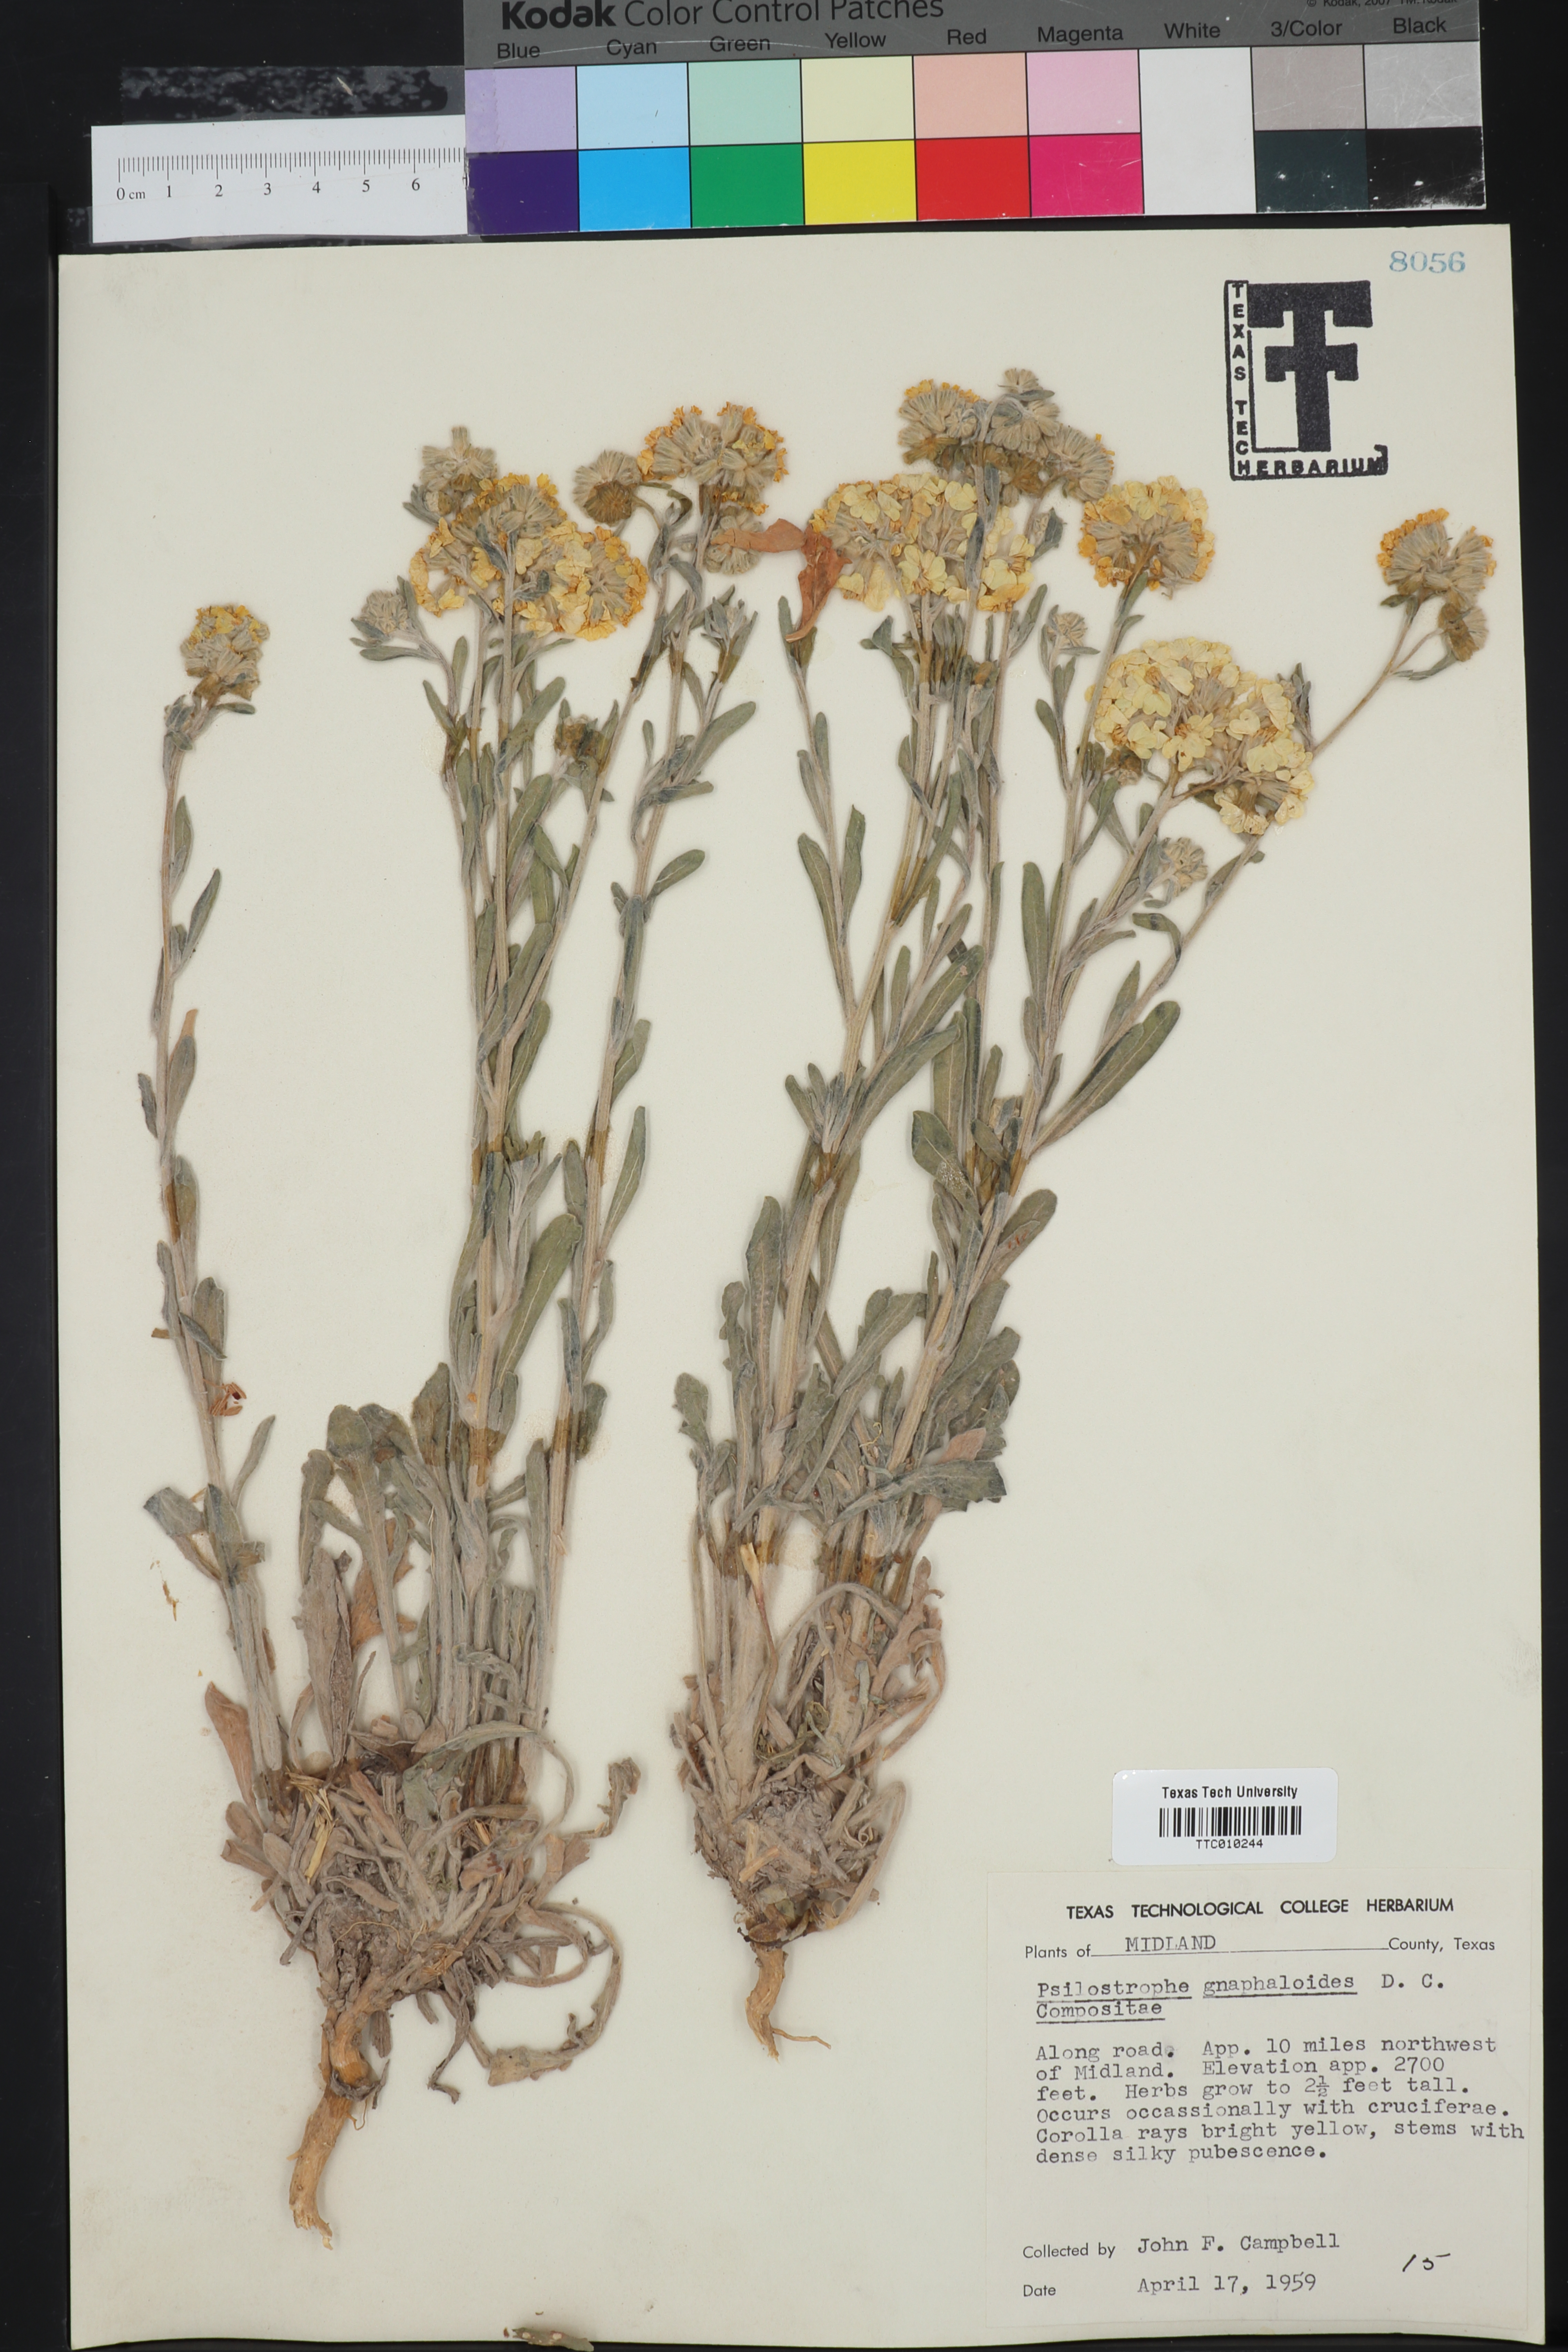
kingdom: Plantae
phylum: Tracheophyta
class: Magnoliopsida
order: Asterales
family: Asteraceae
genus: Psilostrophe
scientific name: Psilostrophe gnaphalioides
